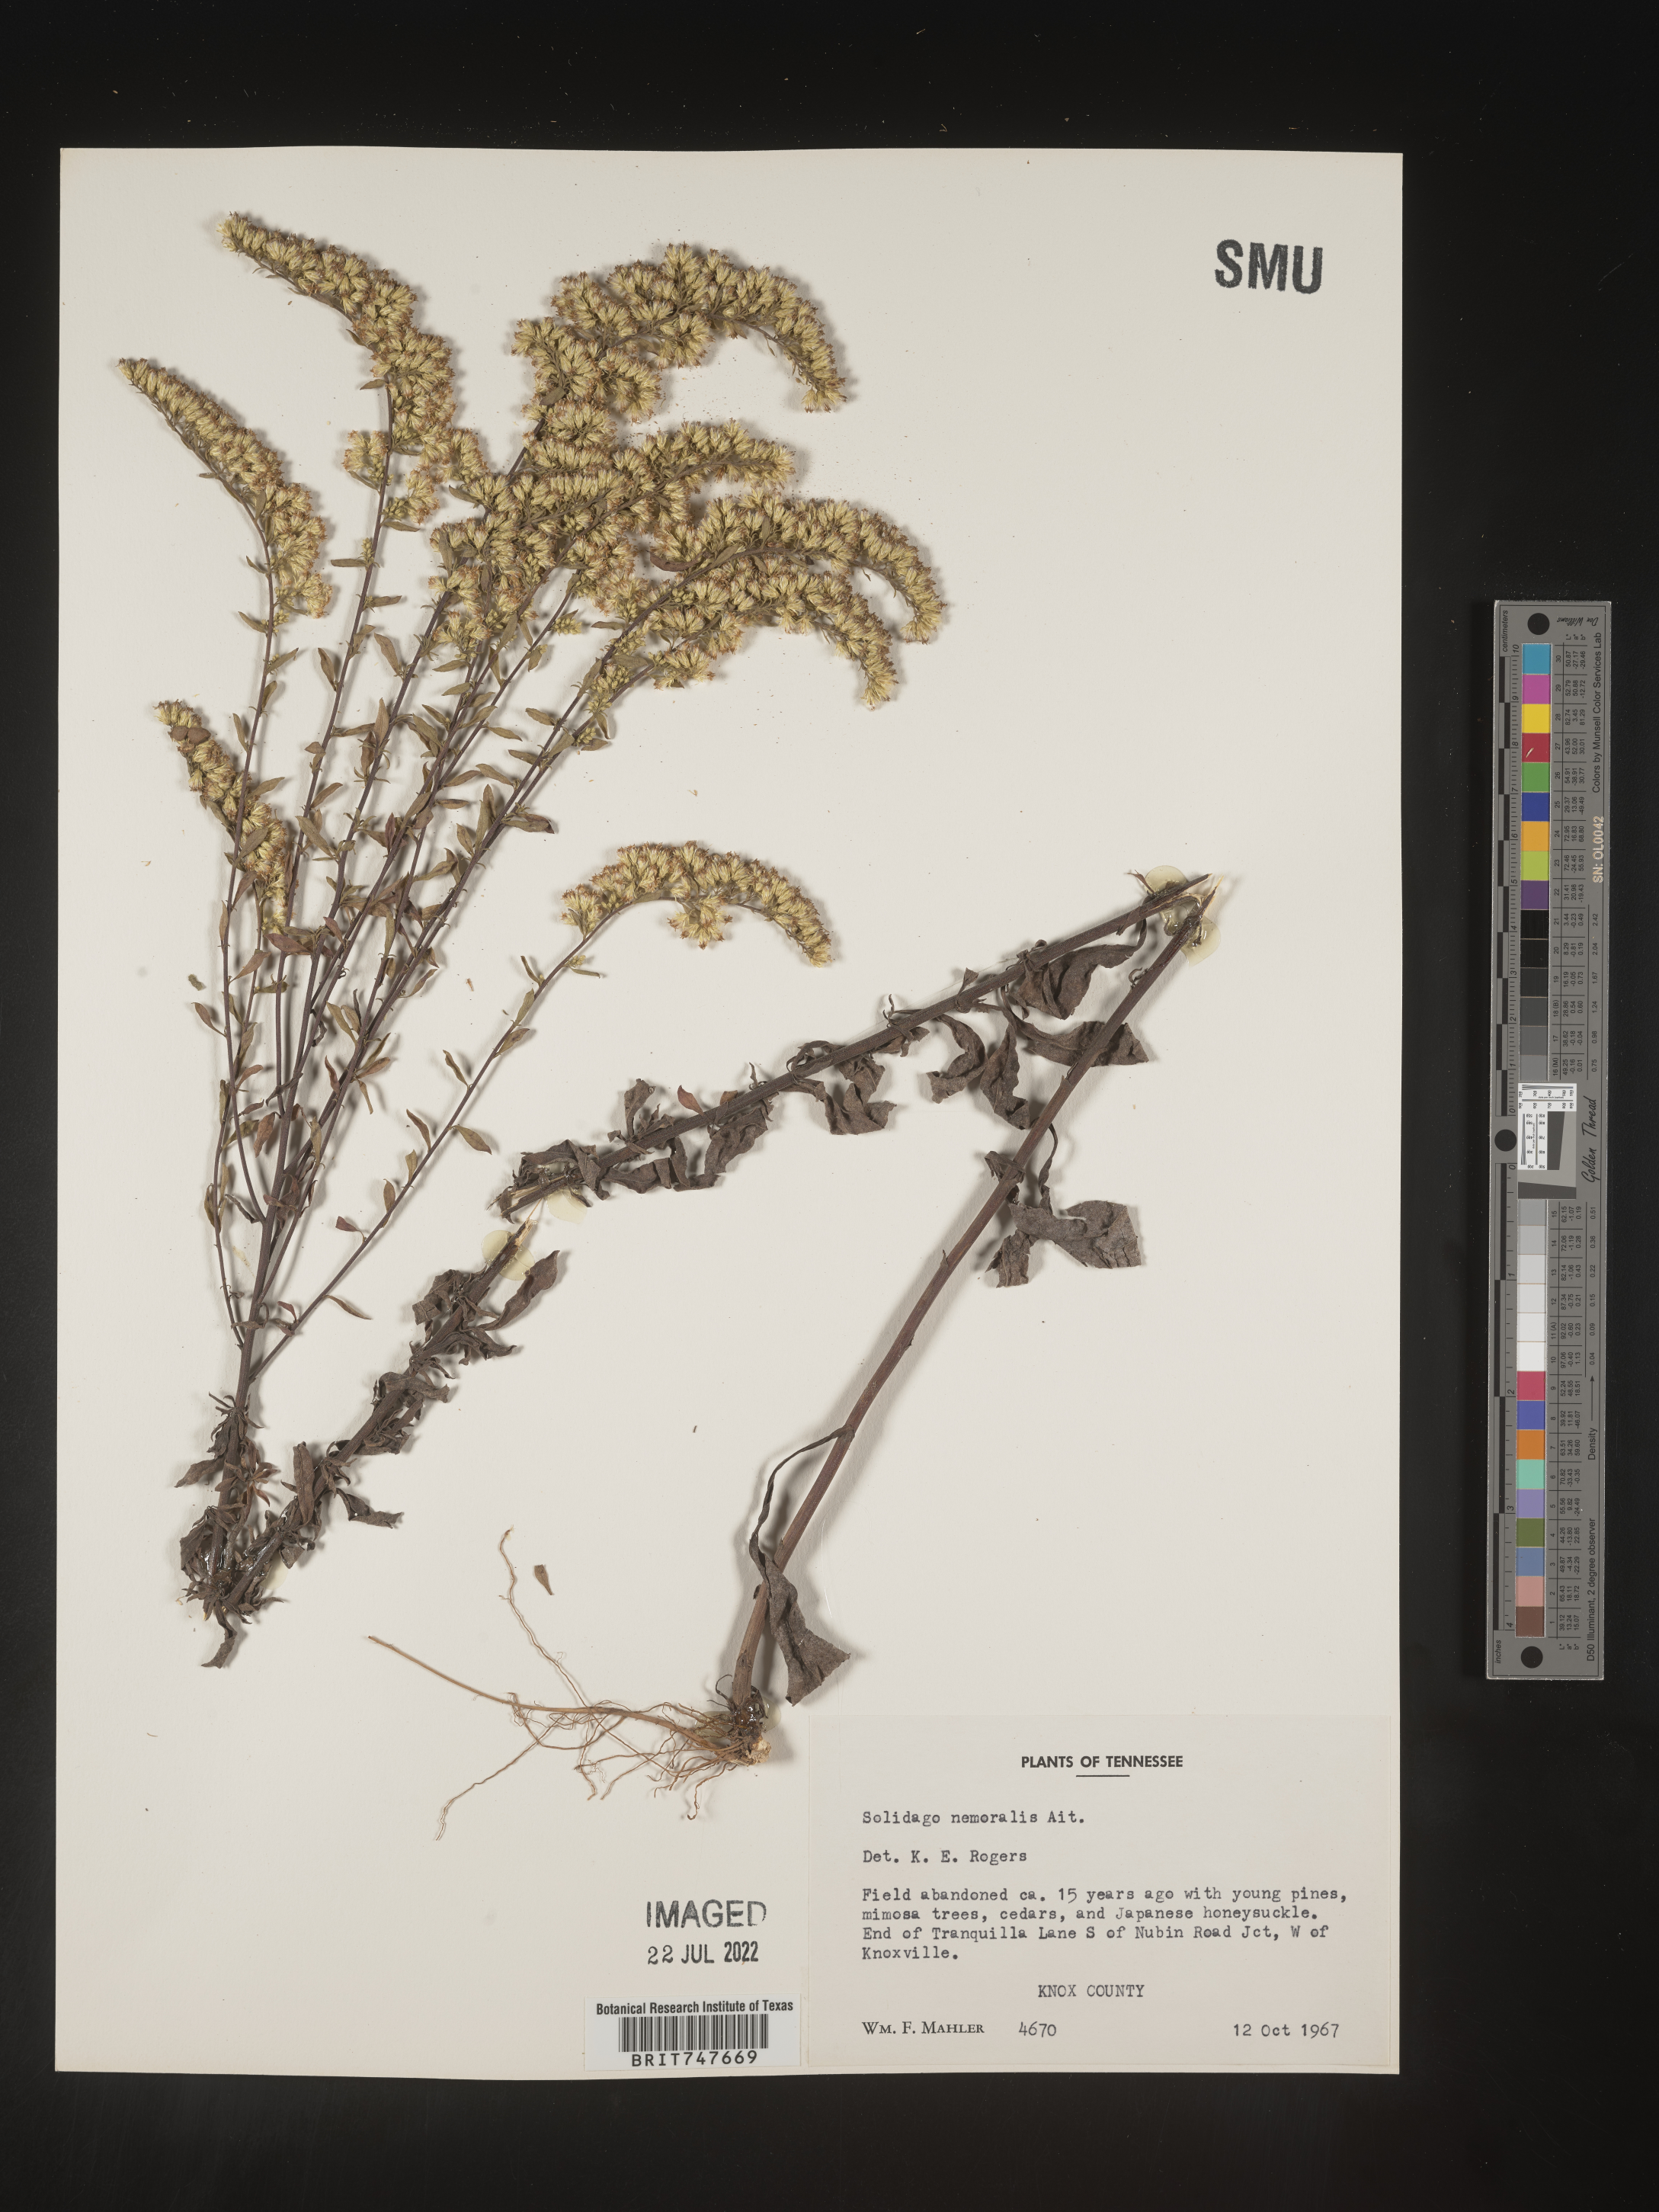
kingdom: Plantae
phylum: Tracheophyta
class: Magnoliopsida
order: Asterales
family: Asteraceae
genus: Solidago
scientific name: Solidago nemoralis
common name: Grey goldenrod
